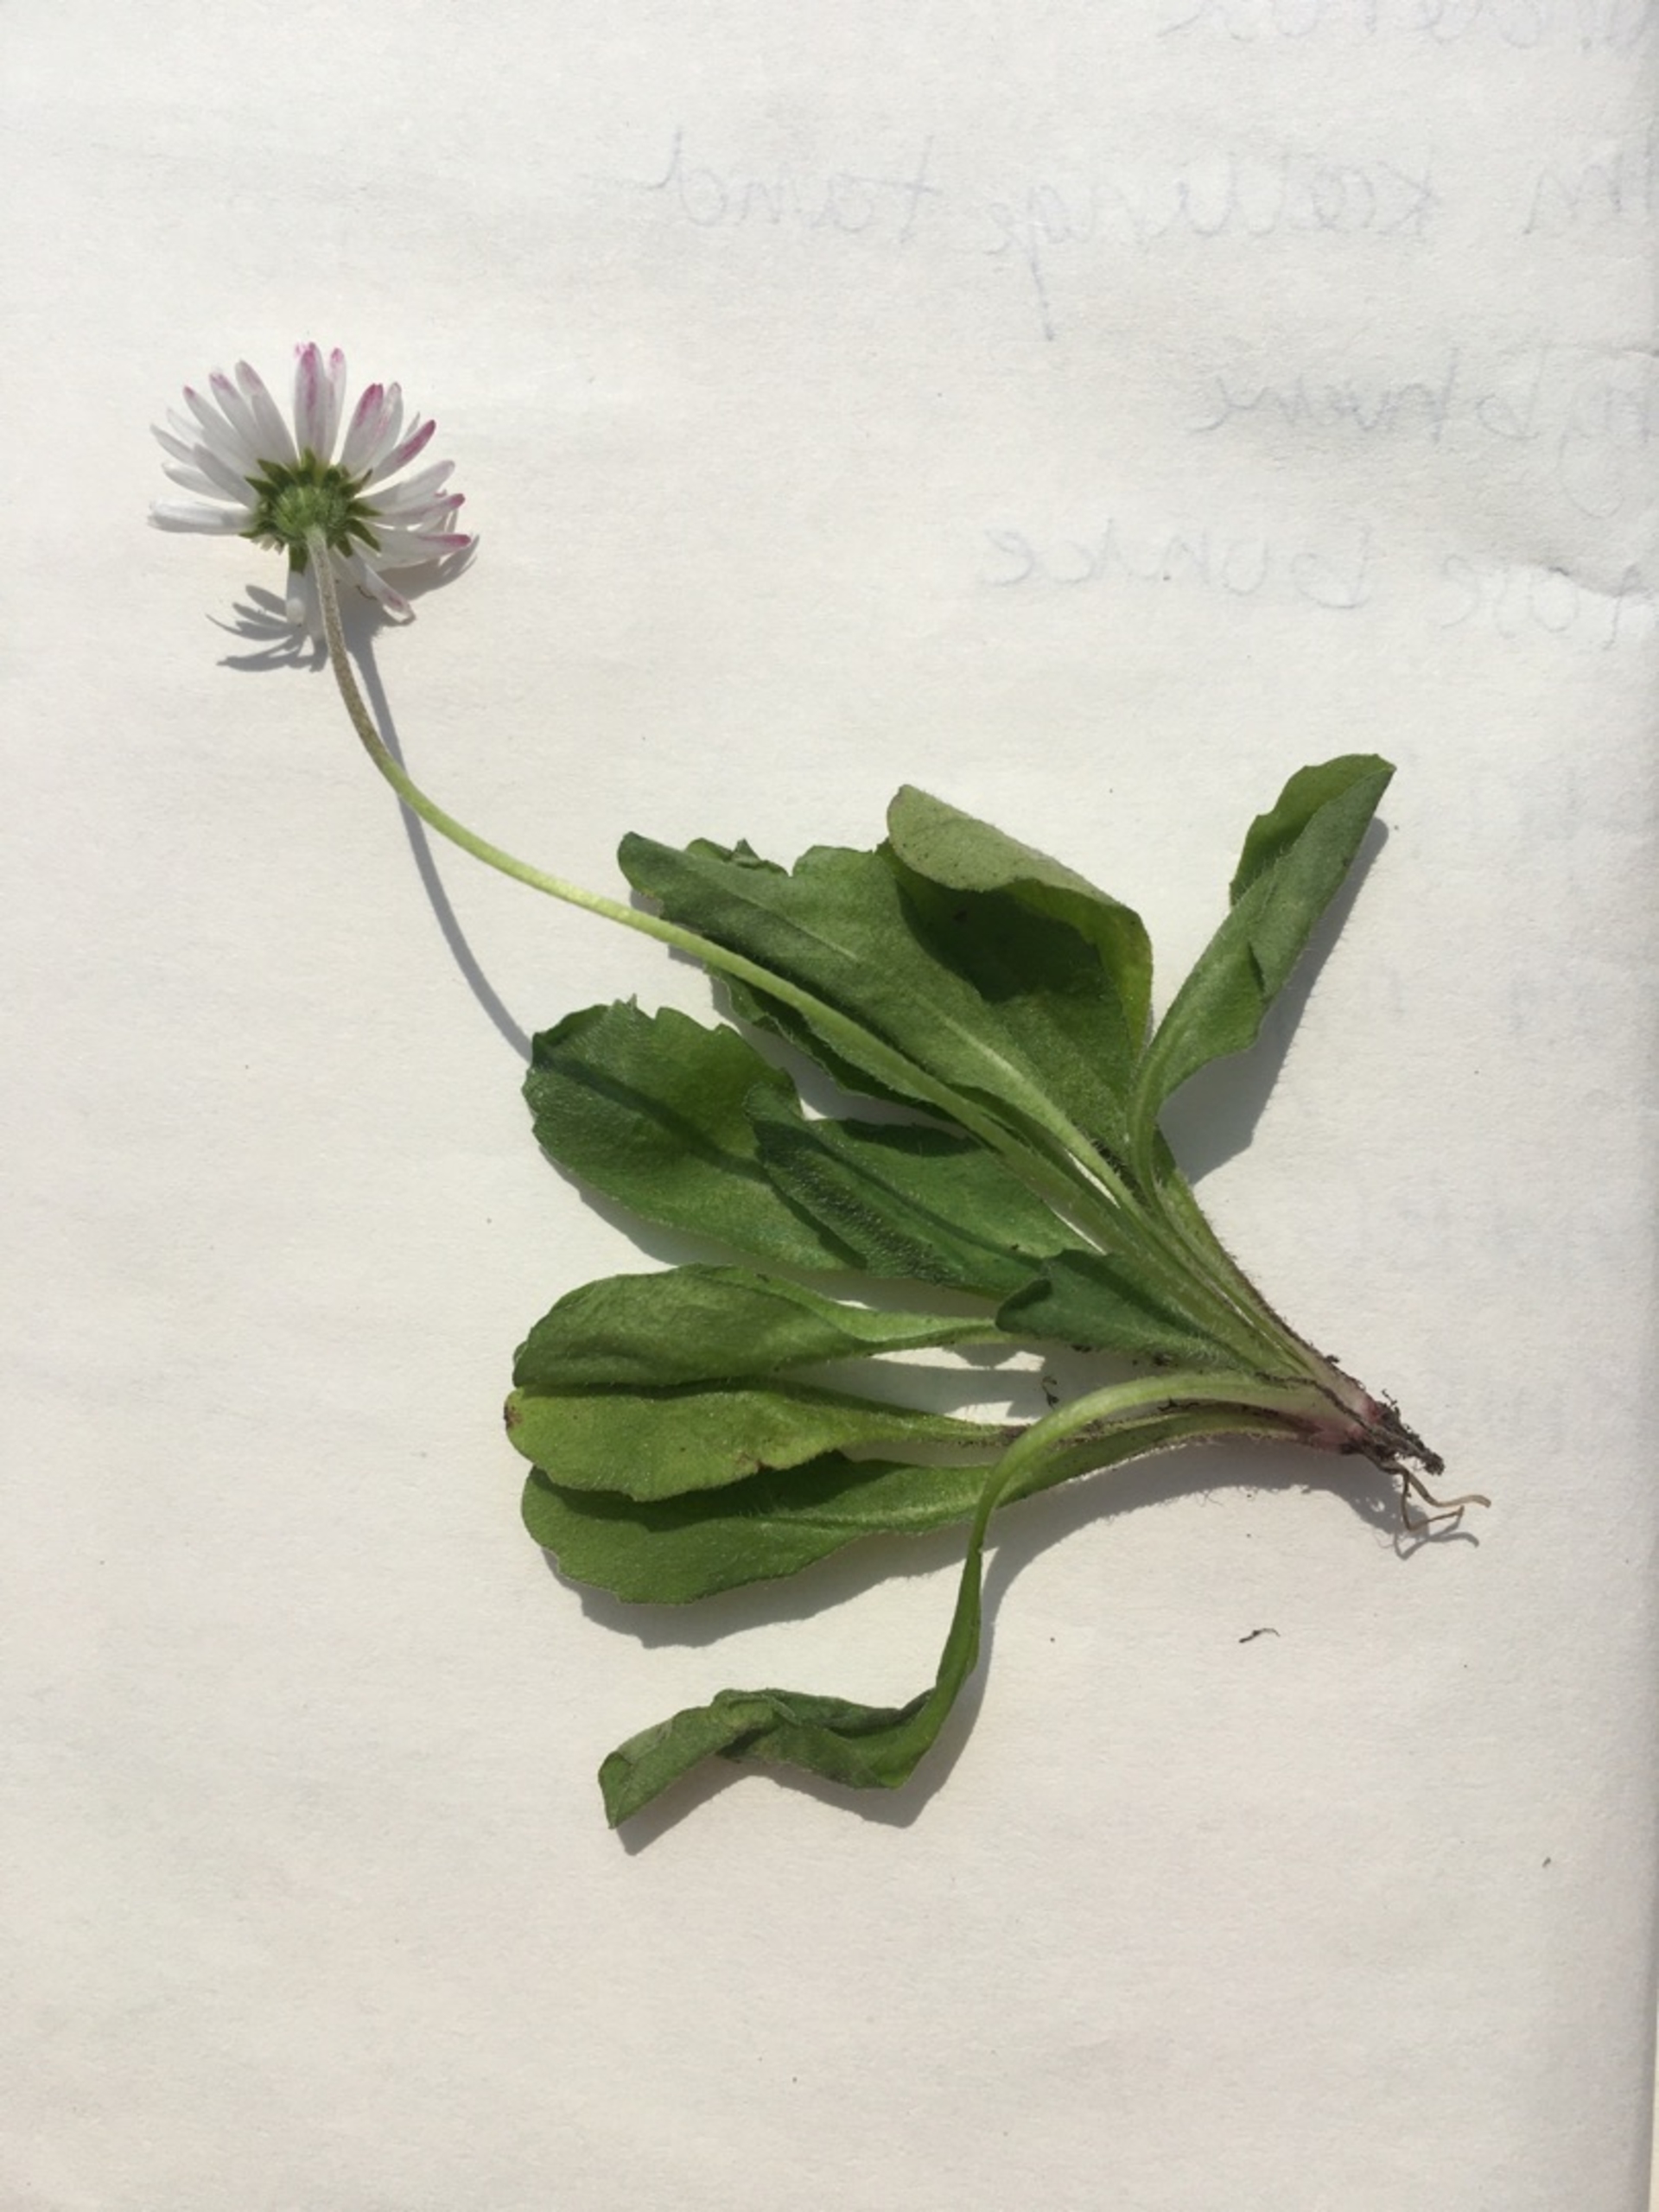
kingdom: Plantae
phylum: Tracheophyta
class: Magnoliopsida
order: Asterales
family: Asteraceae
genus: Bellis
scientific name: Bellis perennis
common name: Tusindfryd
